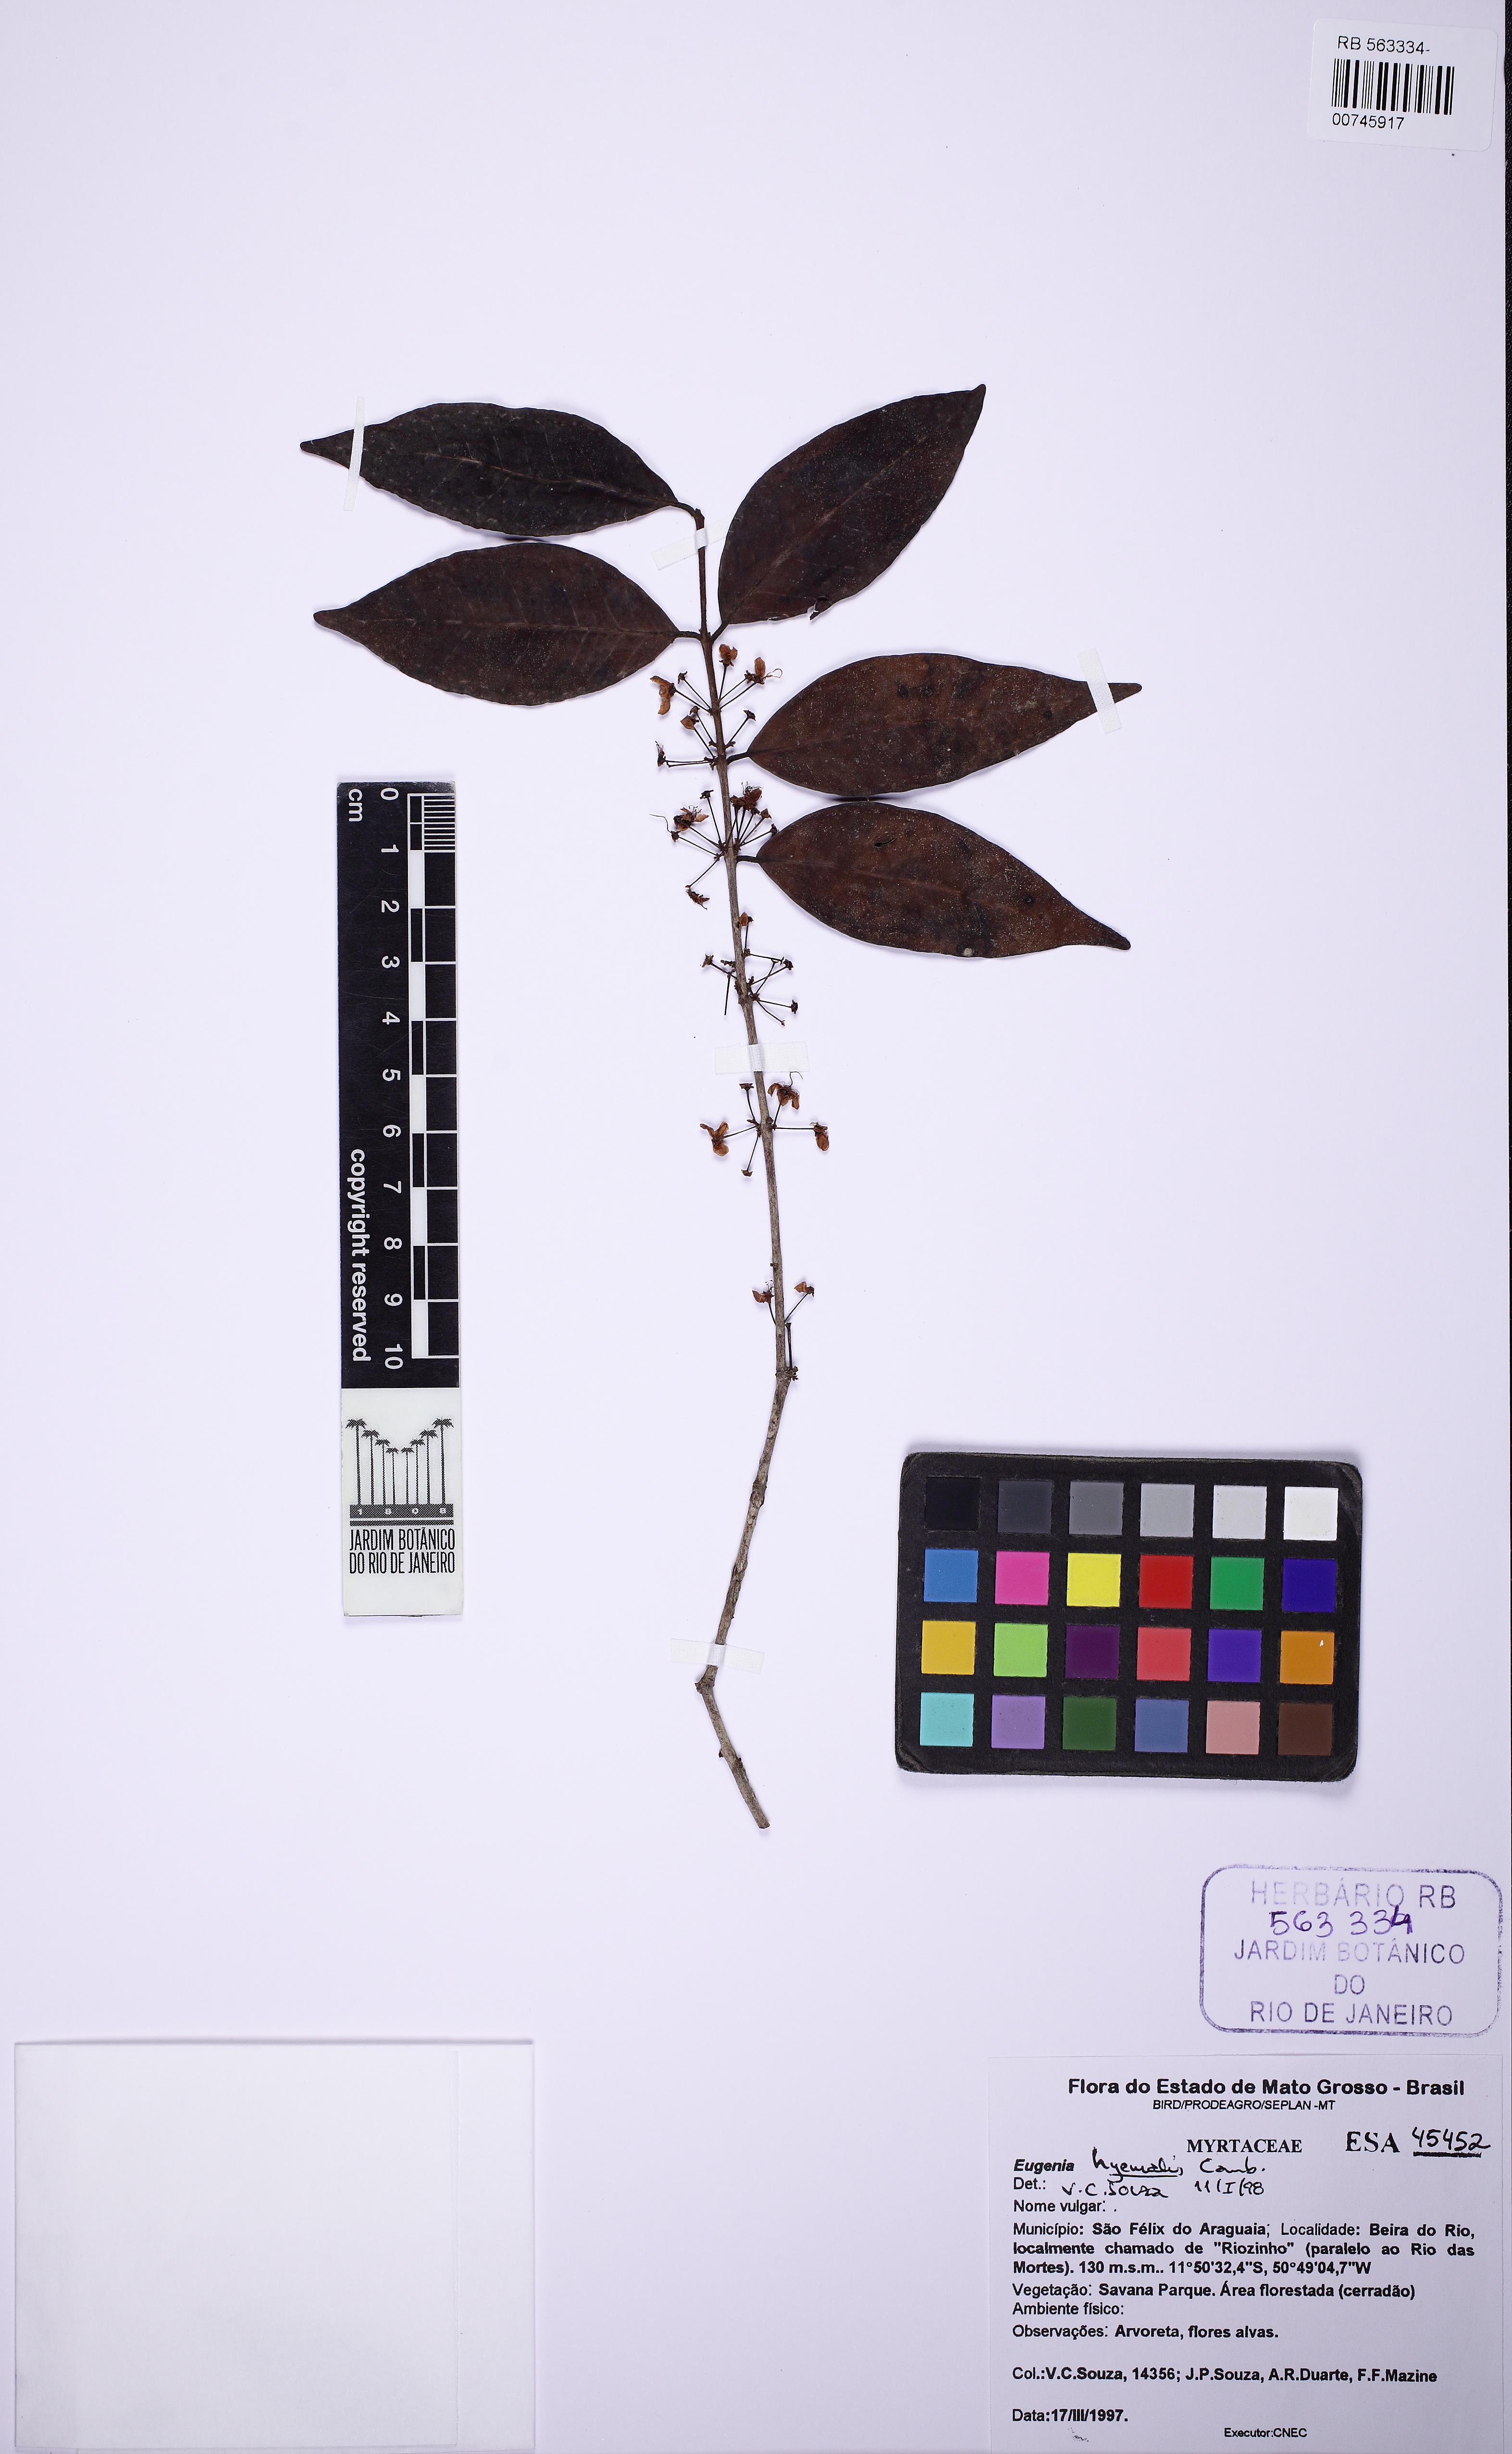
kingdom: Plantae
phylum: Tracheophyta
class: Magnoliopsida
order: Myrtales
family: Myrtaceae
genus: Eugenia
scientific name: Eugenia hiemalis
